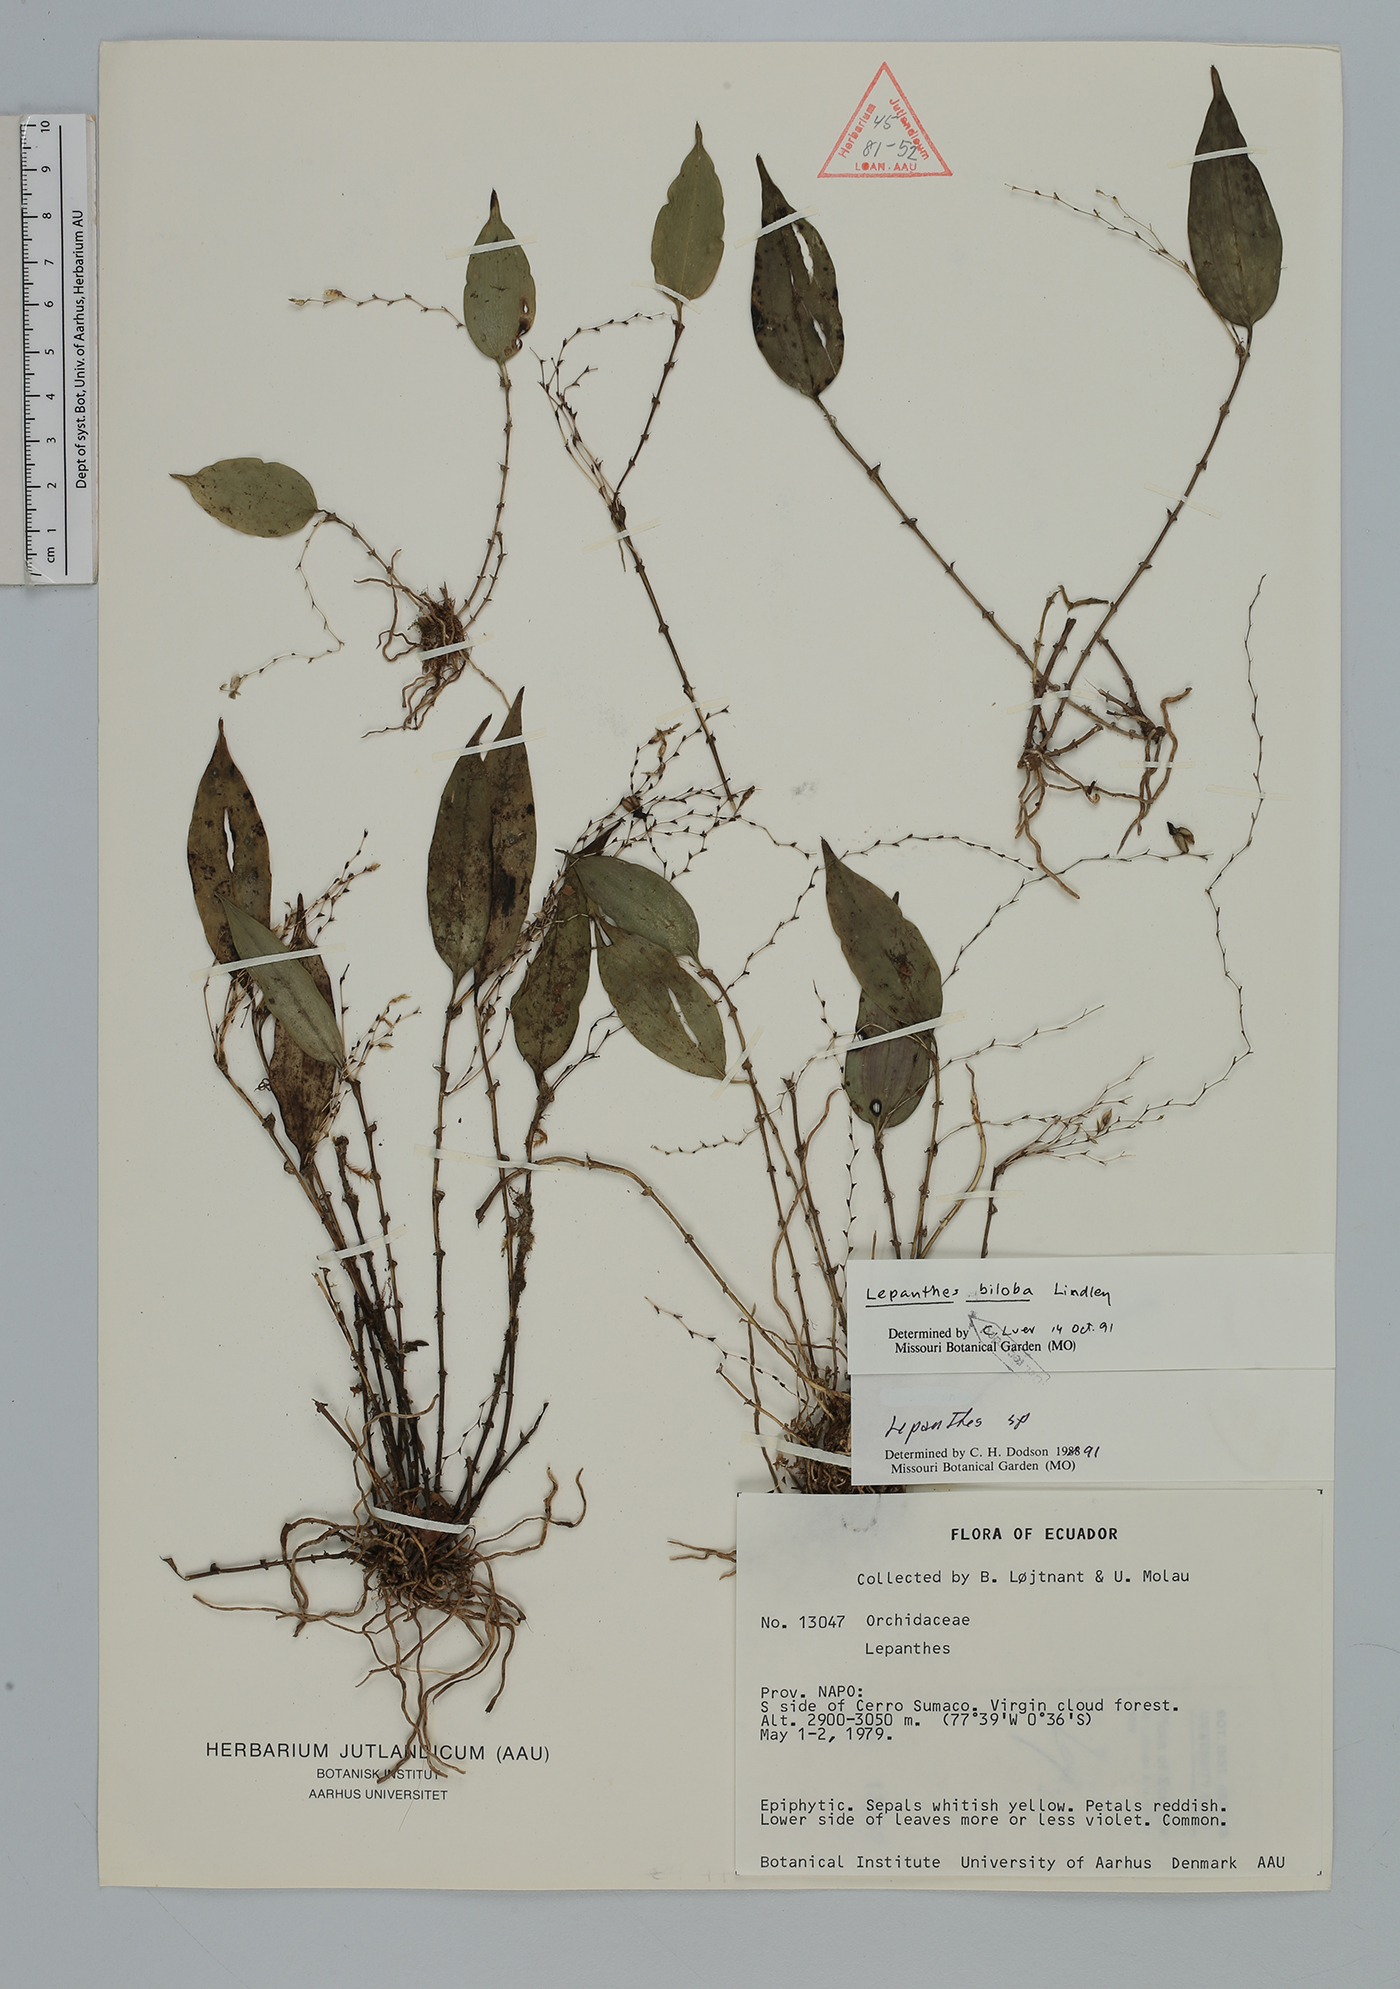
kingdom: Plantae
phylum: Tracheophyta
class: Liliopsida
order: Asparagales
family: Orchidaceae
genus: Lepanthes
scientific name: Lepanthes biloba
